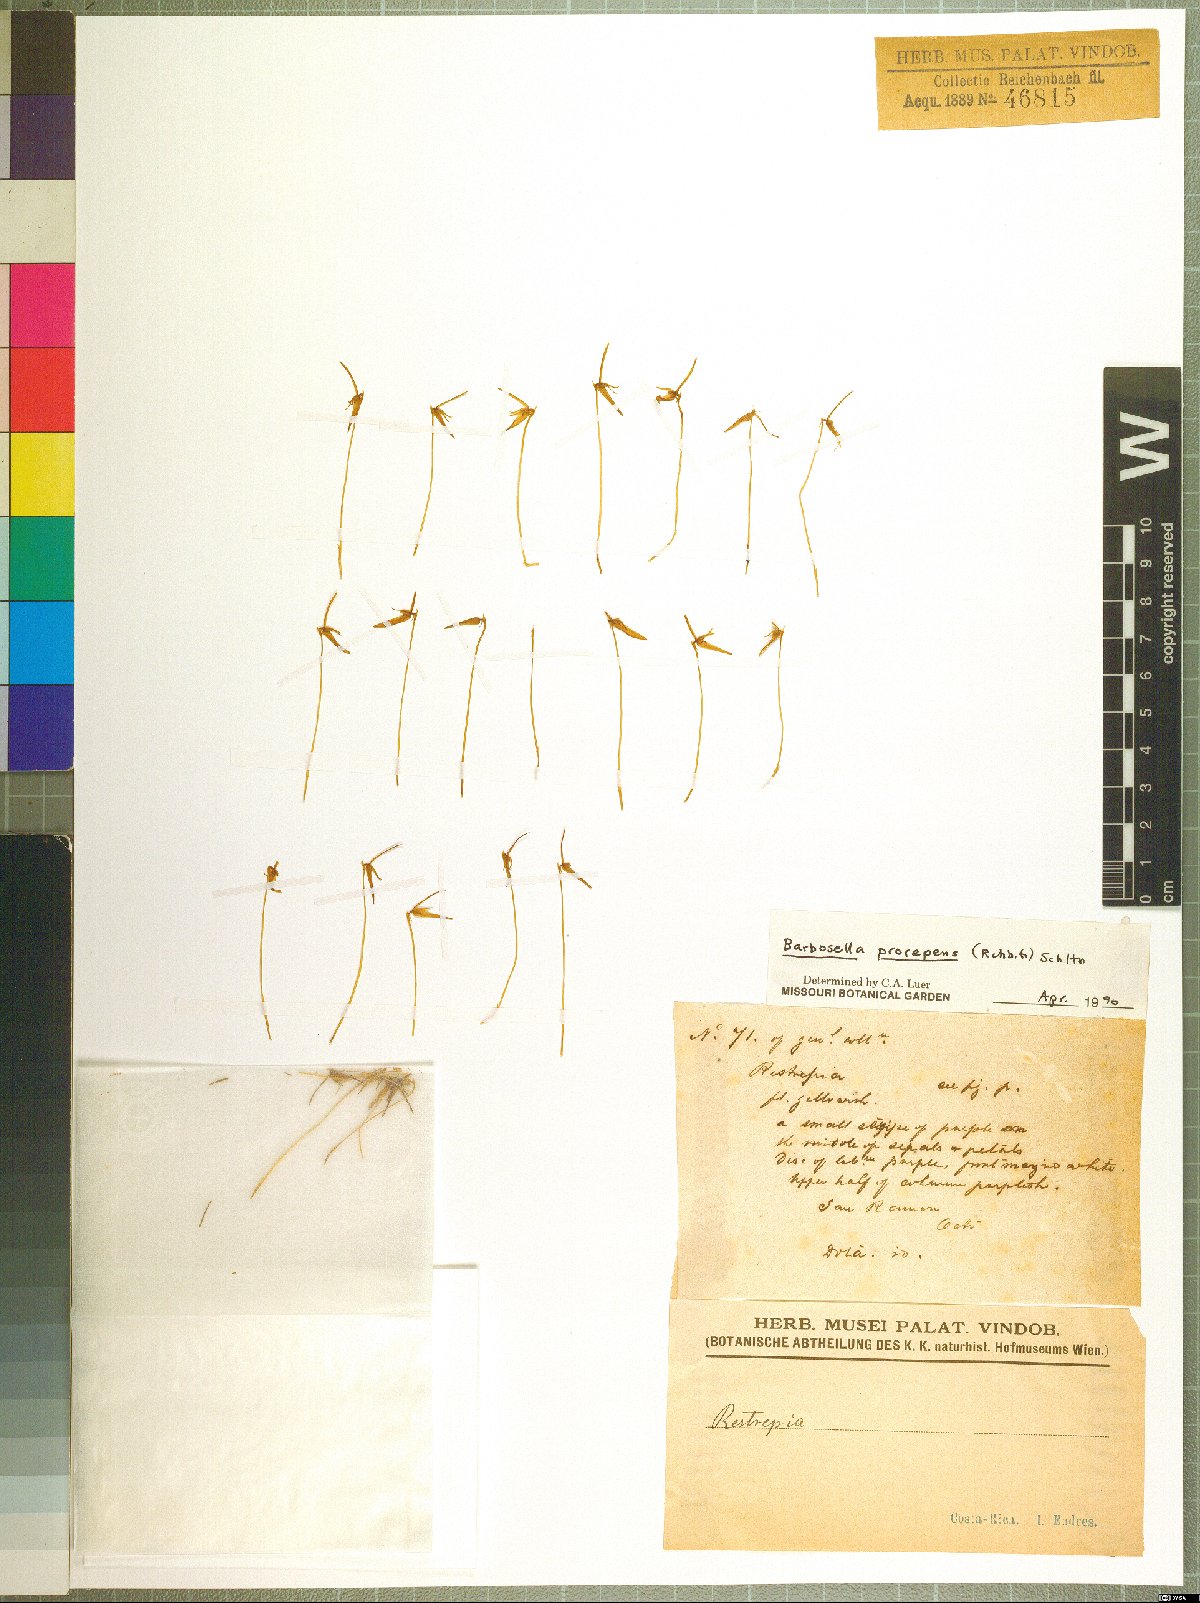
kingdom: Plantae
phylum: Tracheophyta
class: Liliopsida
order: Asparagales
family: Orchidaceae
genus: Barbosella
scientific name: Barbosella prorepens
